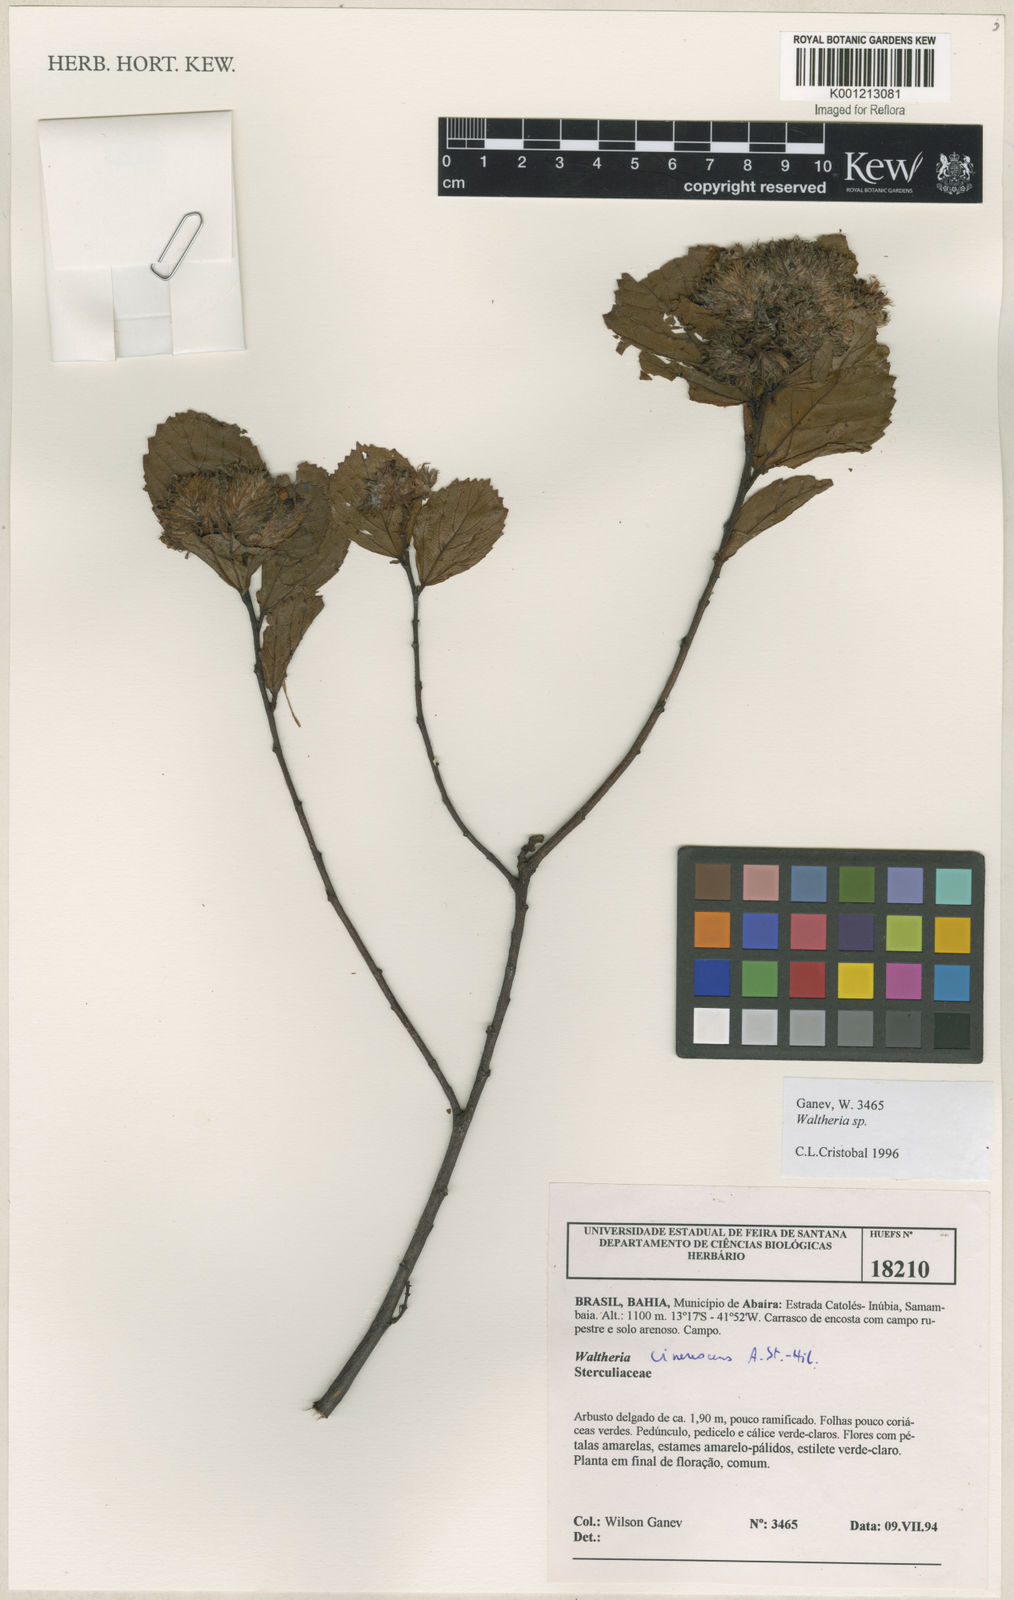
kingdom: Plantae
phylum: Tracheophyta
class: Magnoliopsida
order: Malvales
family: Malvaceae
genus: Waltheria
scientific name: Waltheria cinerescens
